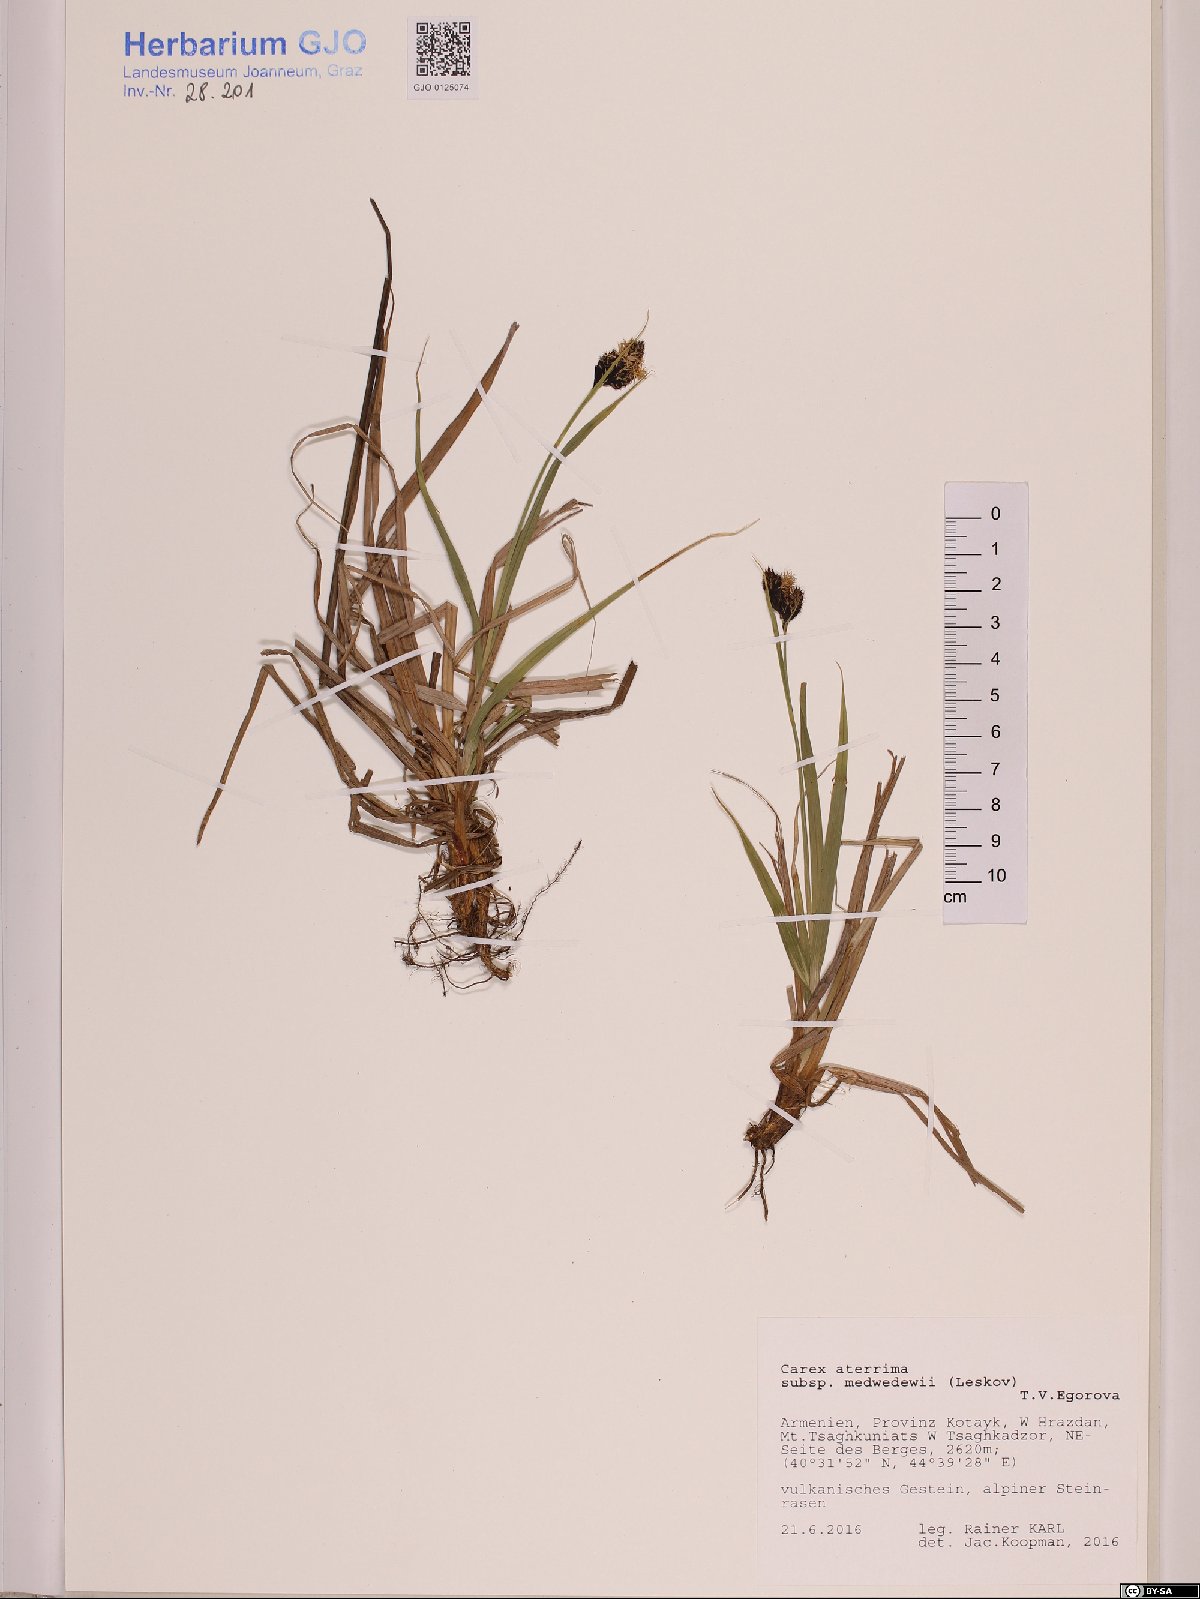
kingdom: Plantae
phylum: Tracheophyta
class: Liliopsida
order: Poales
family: Cyperaceae
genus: Carex
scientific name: Carex aterrima
